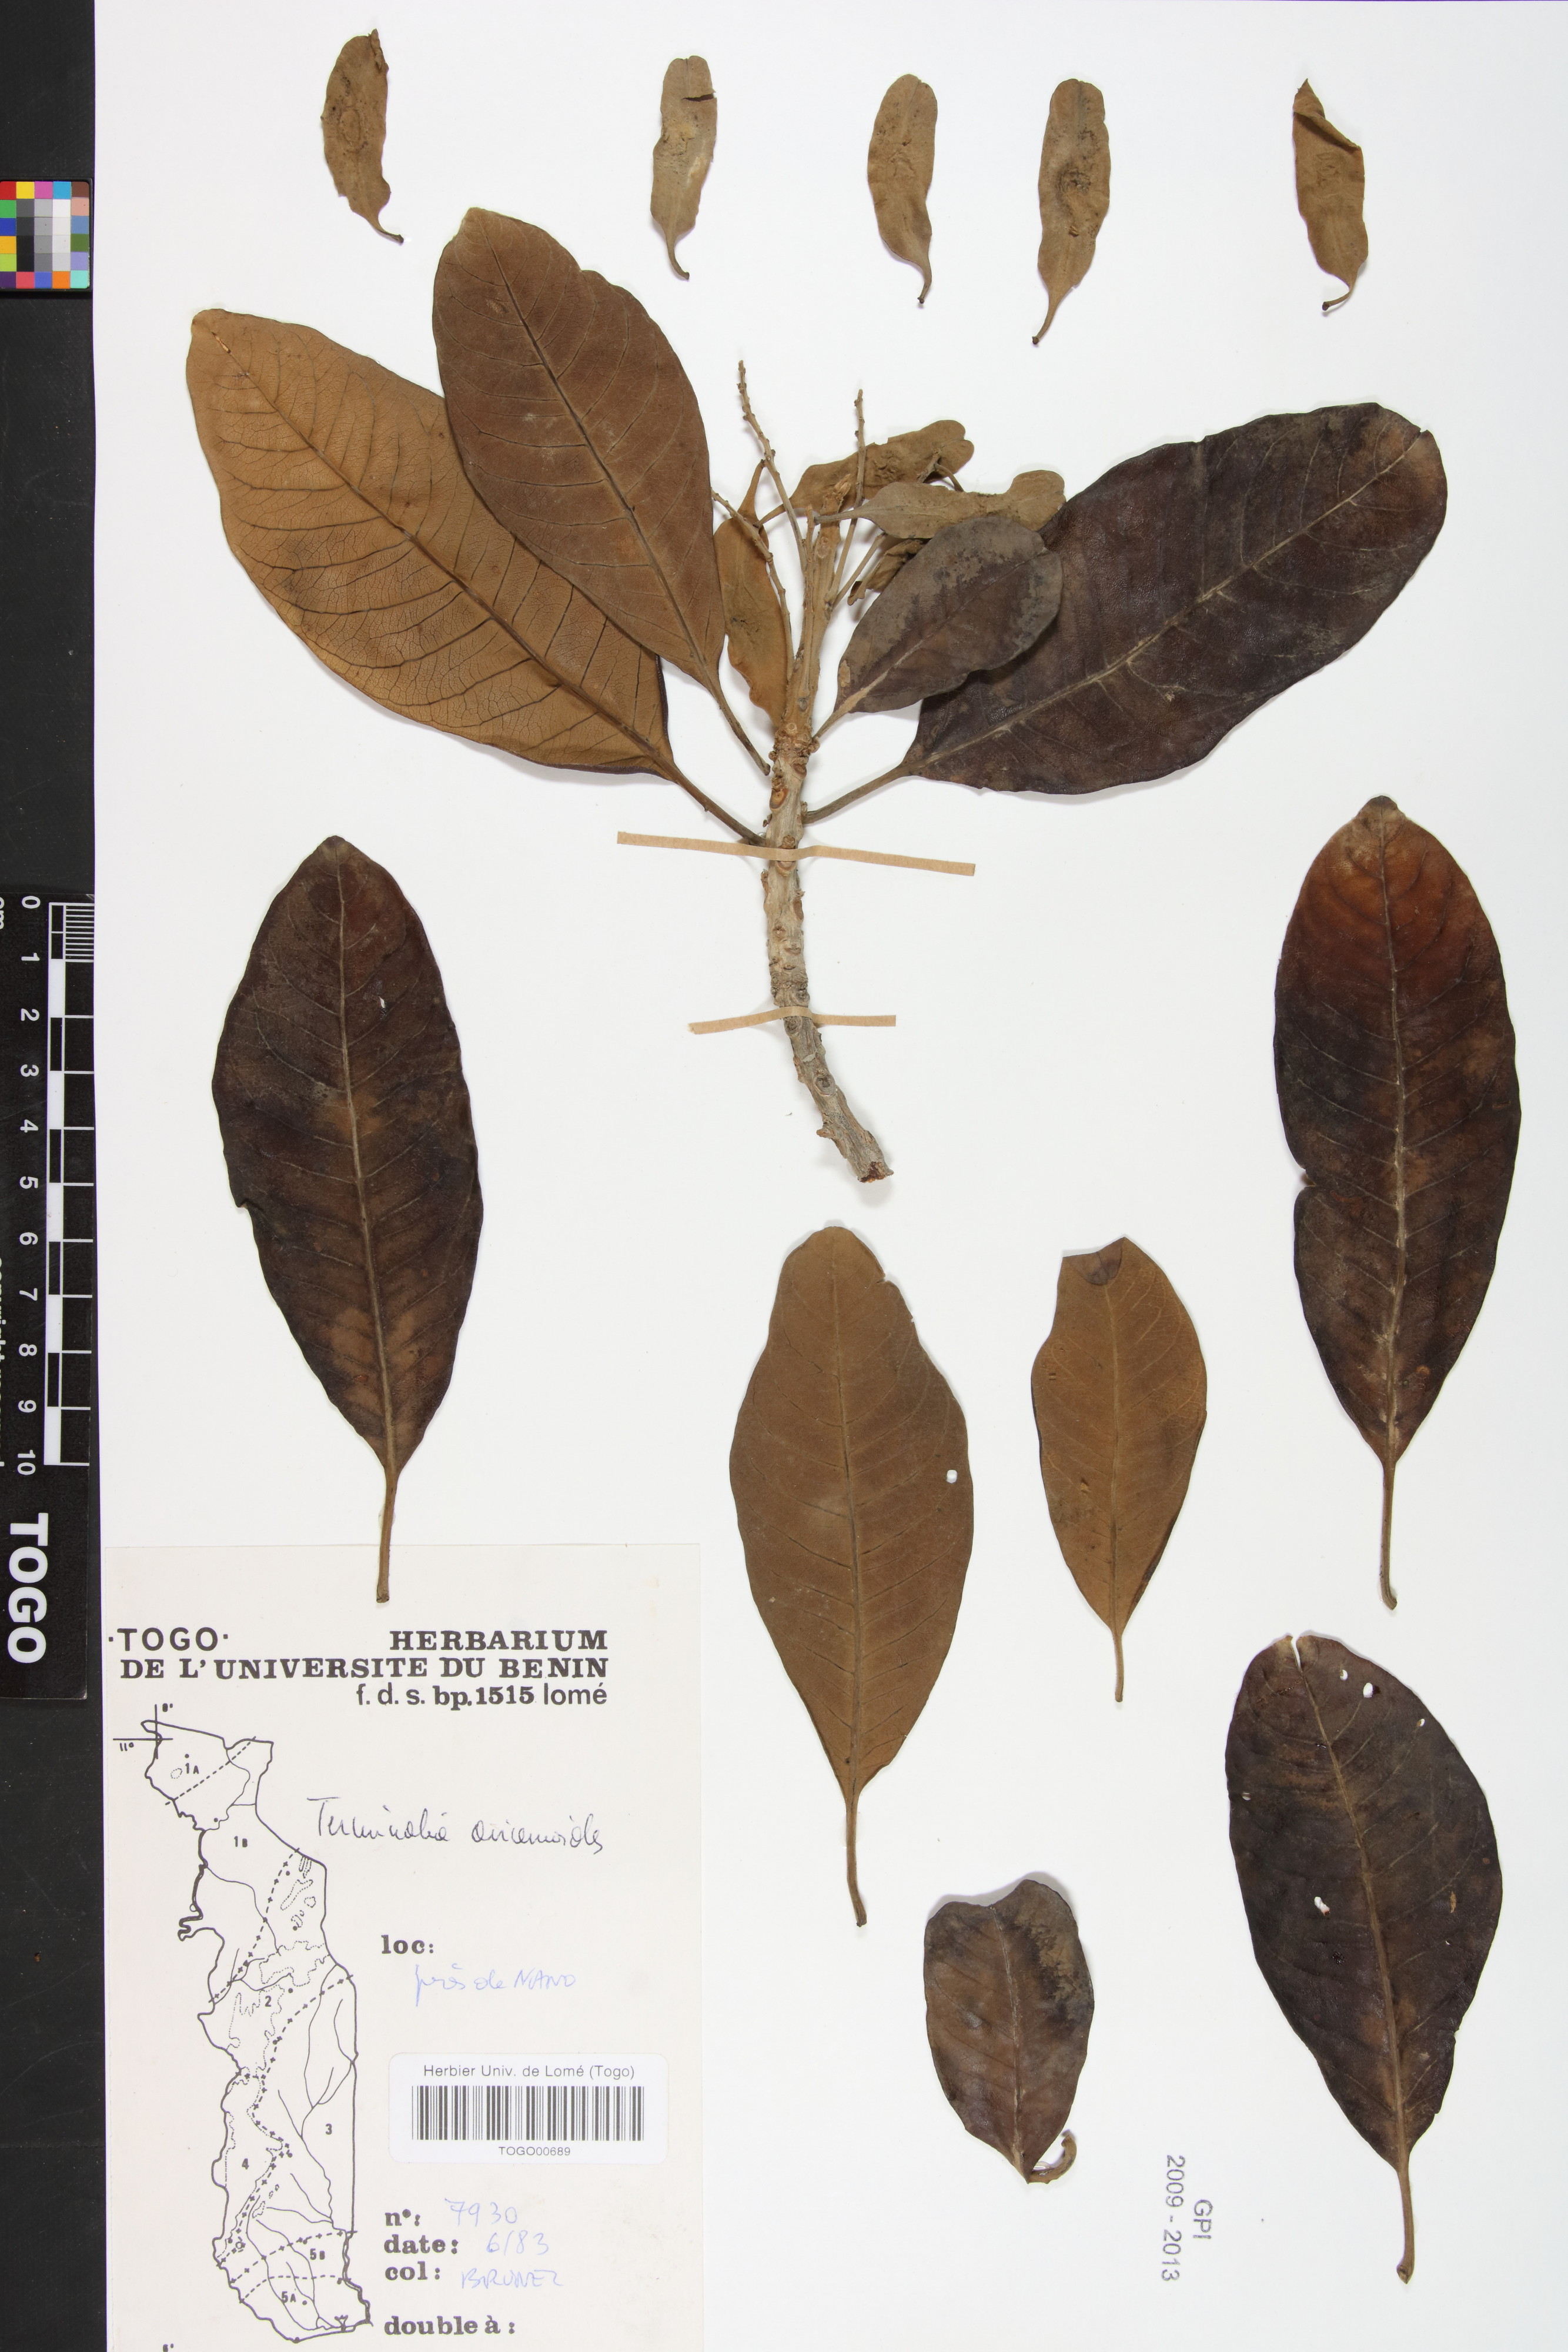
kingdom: Plantae
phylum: Tracheophyta
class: Magnoliopsida
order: Myrtales
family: Combretaceae
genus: Terminalia
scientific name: Terminalia avicennioides
